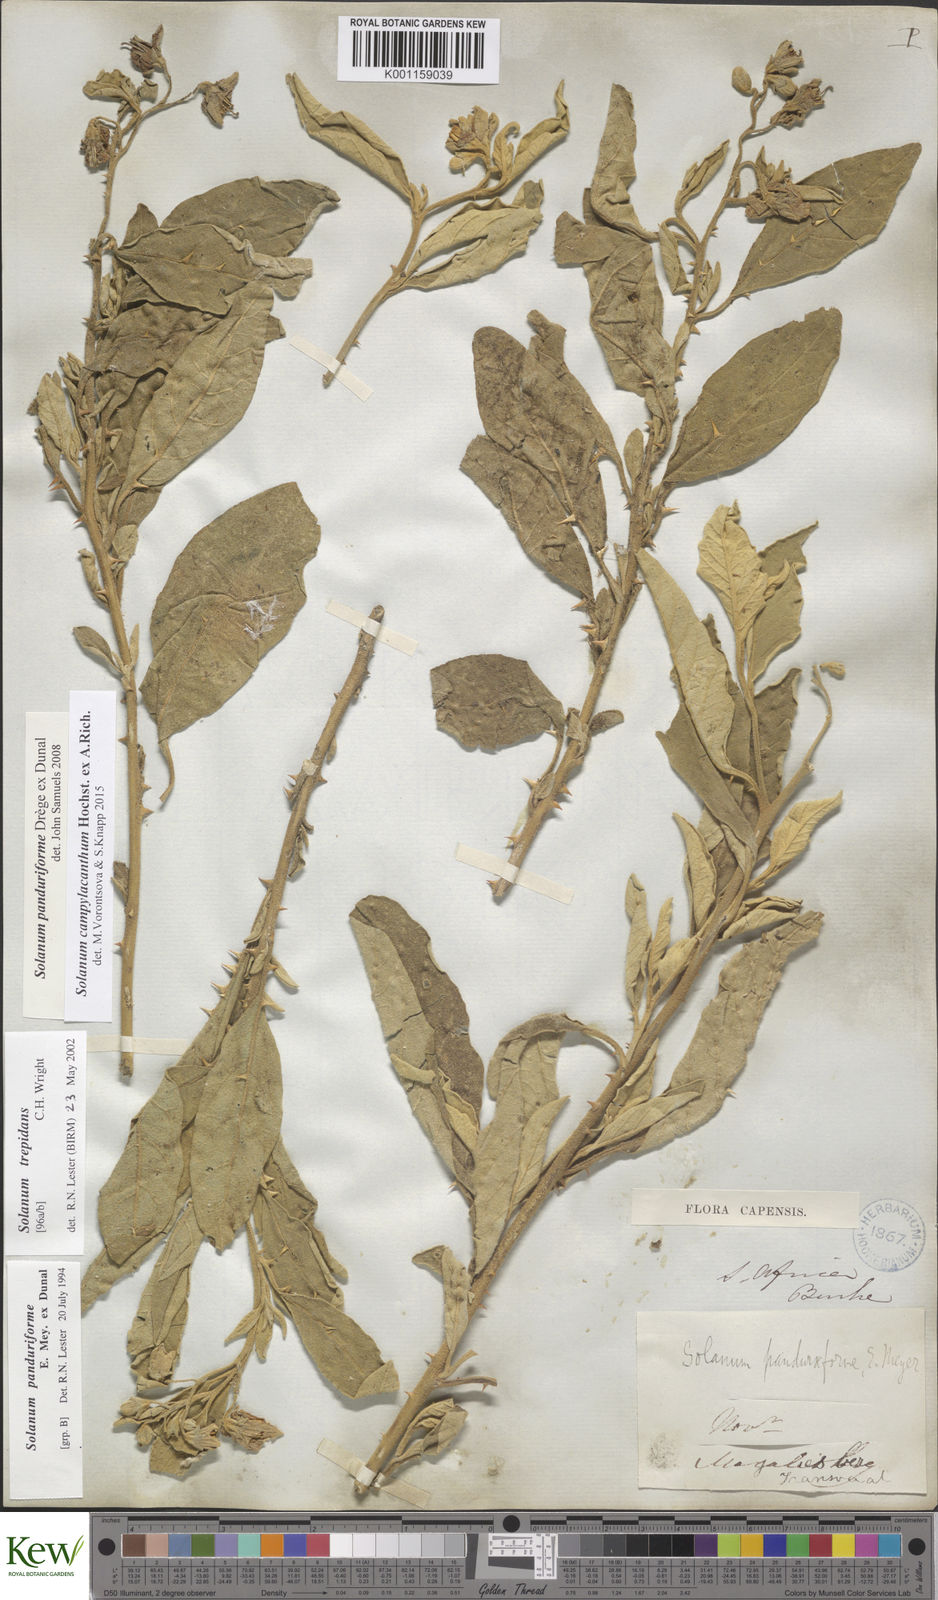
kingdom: Plantae
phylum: Tracheophyta
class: Magnoliopsida
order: Solanales
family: Solanaceae
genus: Solanum
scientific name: Solanum campylacanthum
